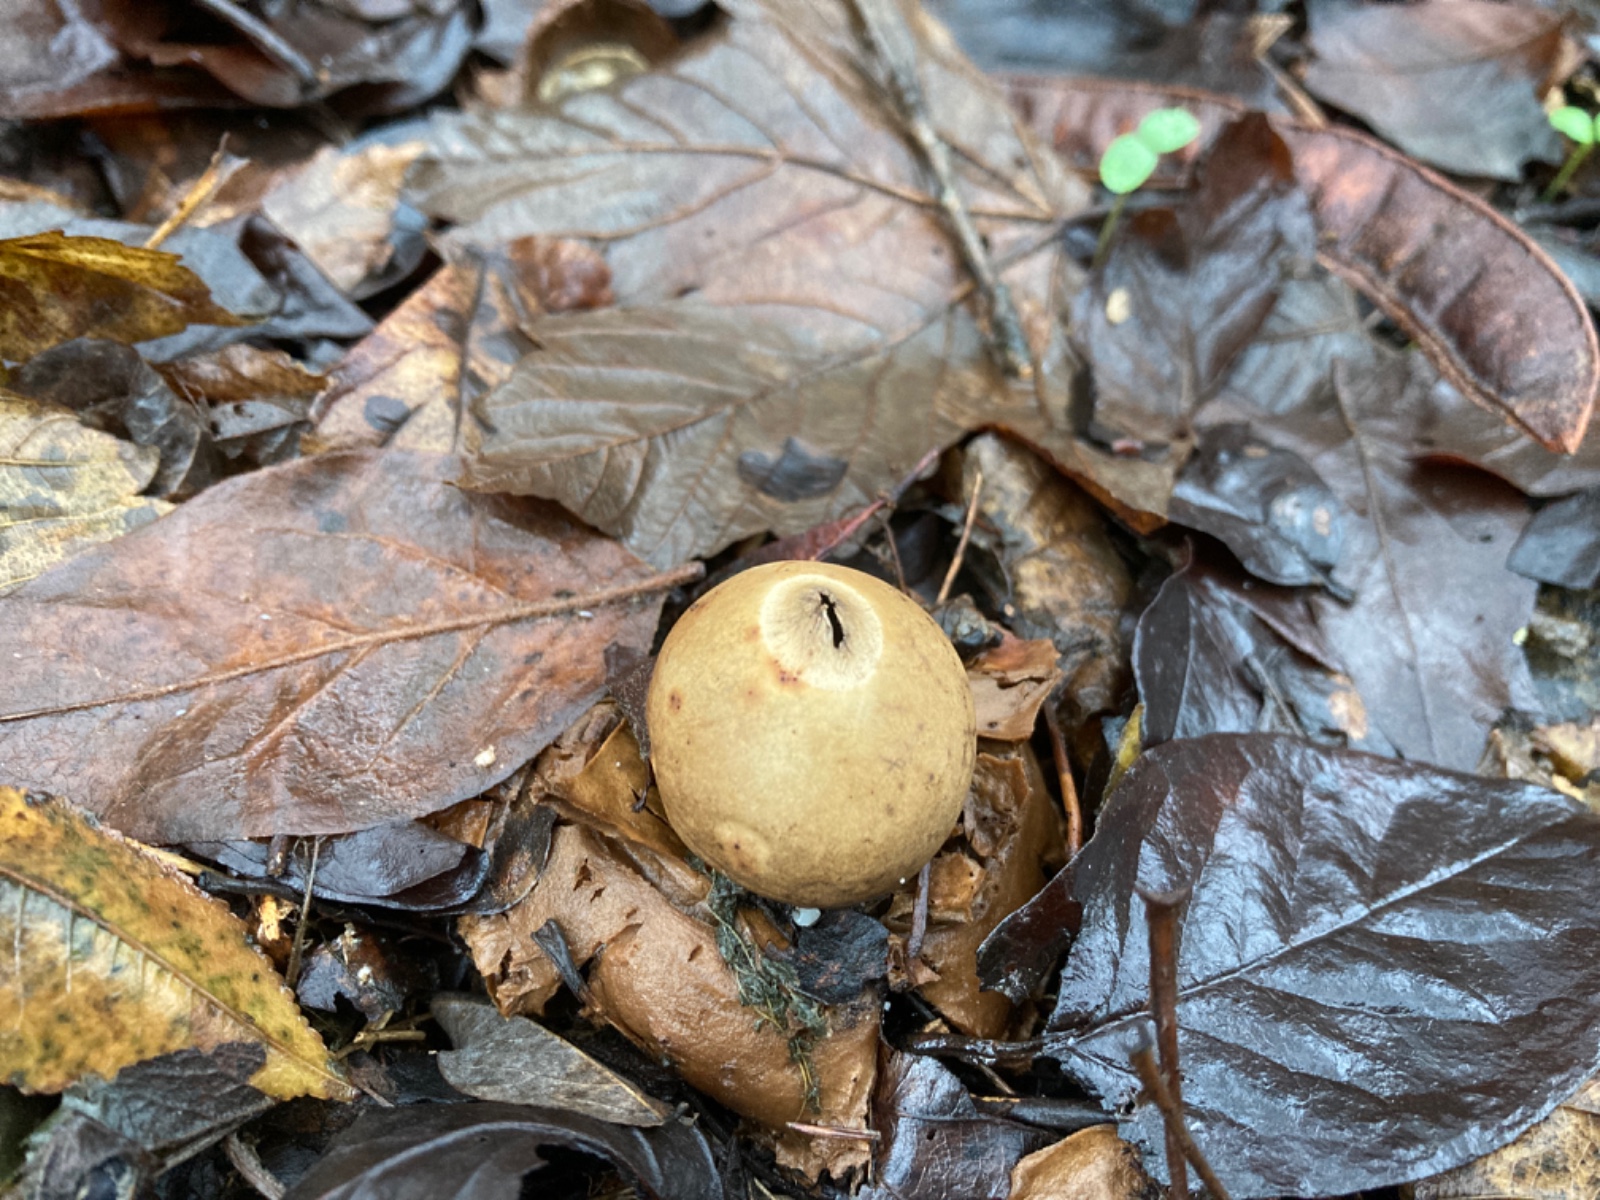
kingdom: Fungi
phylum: Basidiomycota
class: Agaricomycetes
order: Geastrales
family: Geastraceae
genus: Geastrum
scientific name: Geastrum michelianum
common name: kødet stjernebold
